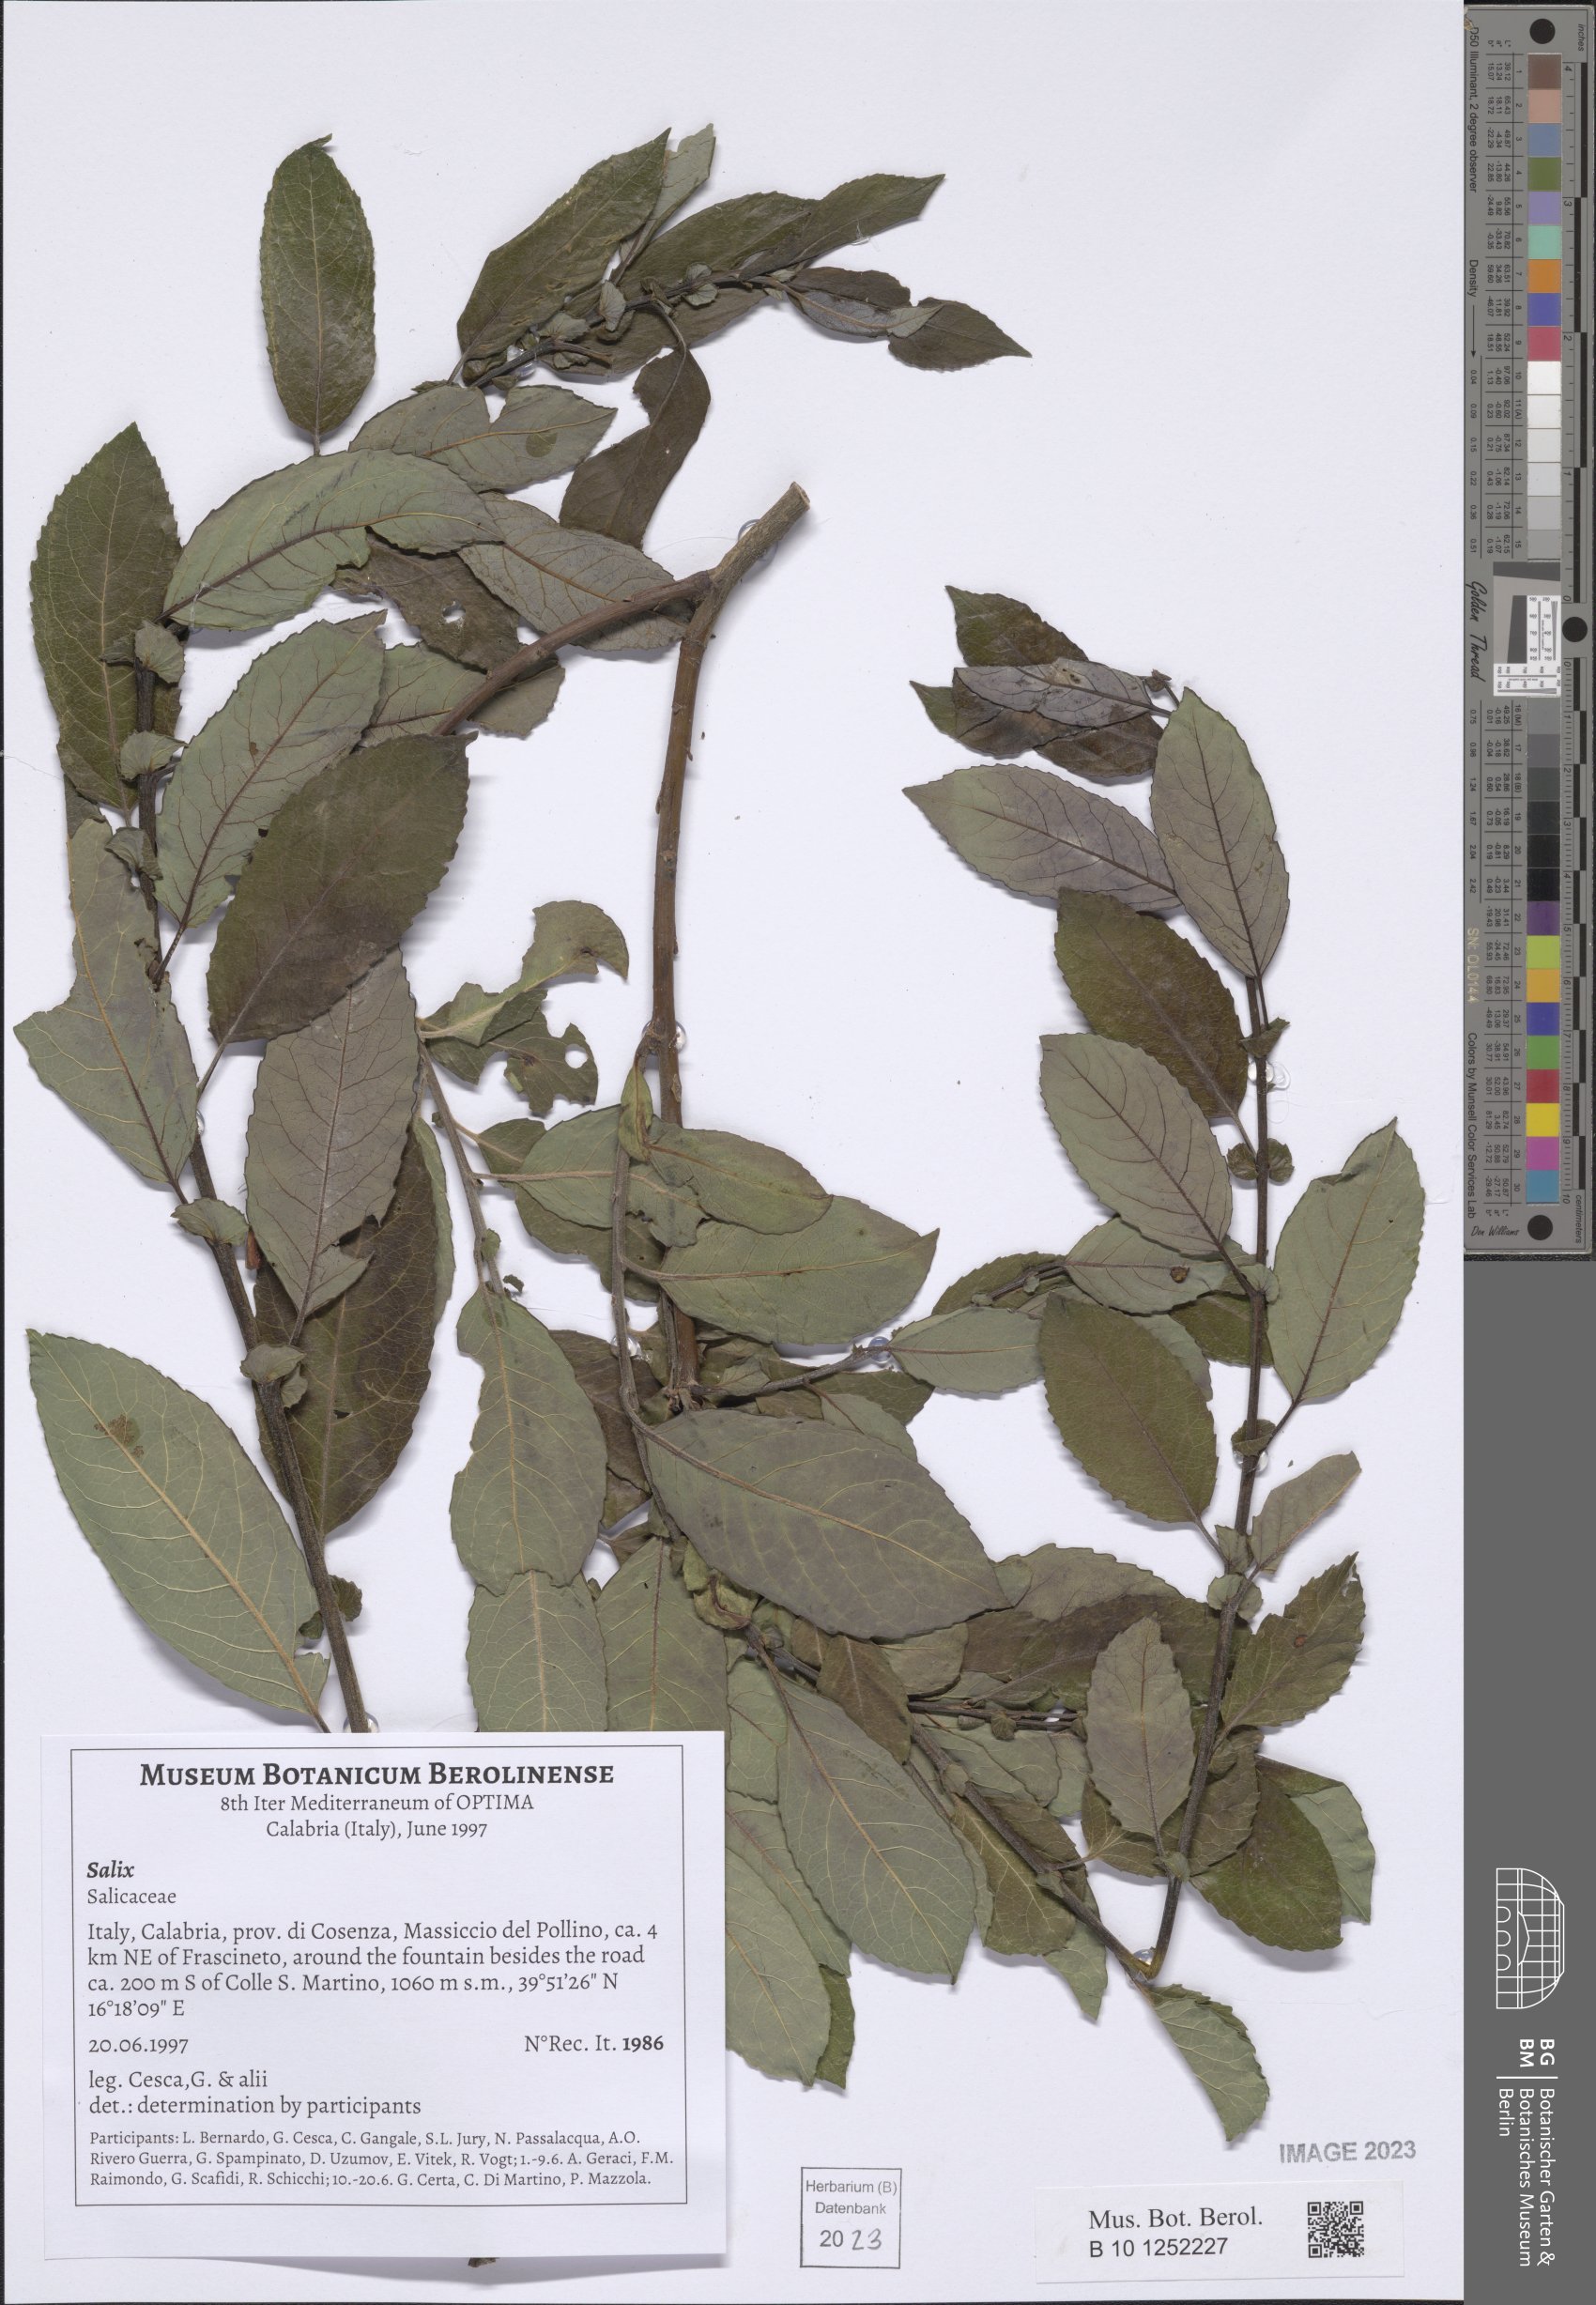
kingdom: Plantae
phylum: Tracheophyta
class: Magnoliopsida
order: Malpighiales
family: Salicaceae
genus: Salix
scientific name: Salix
